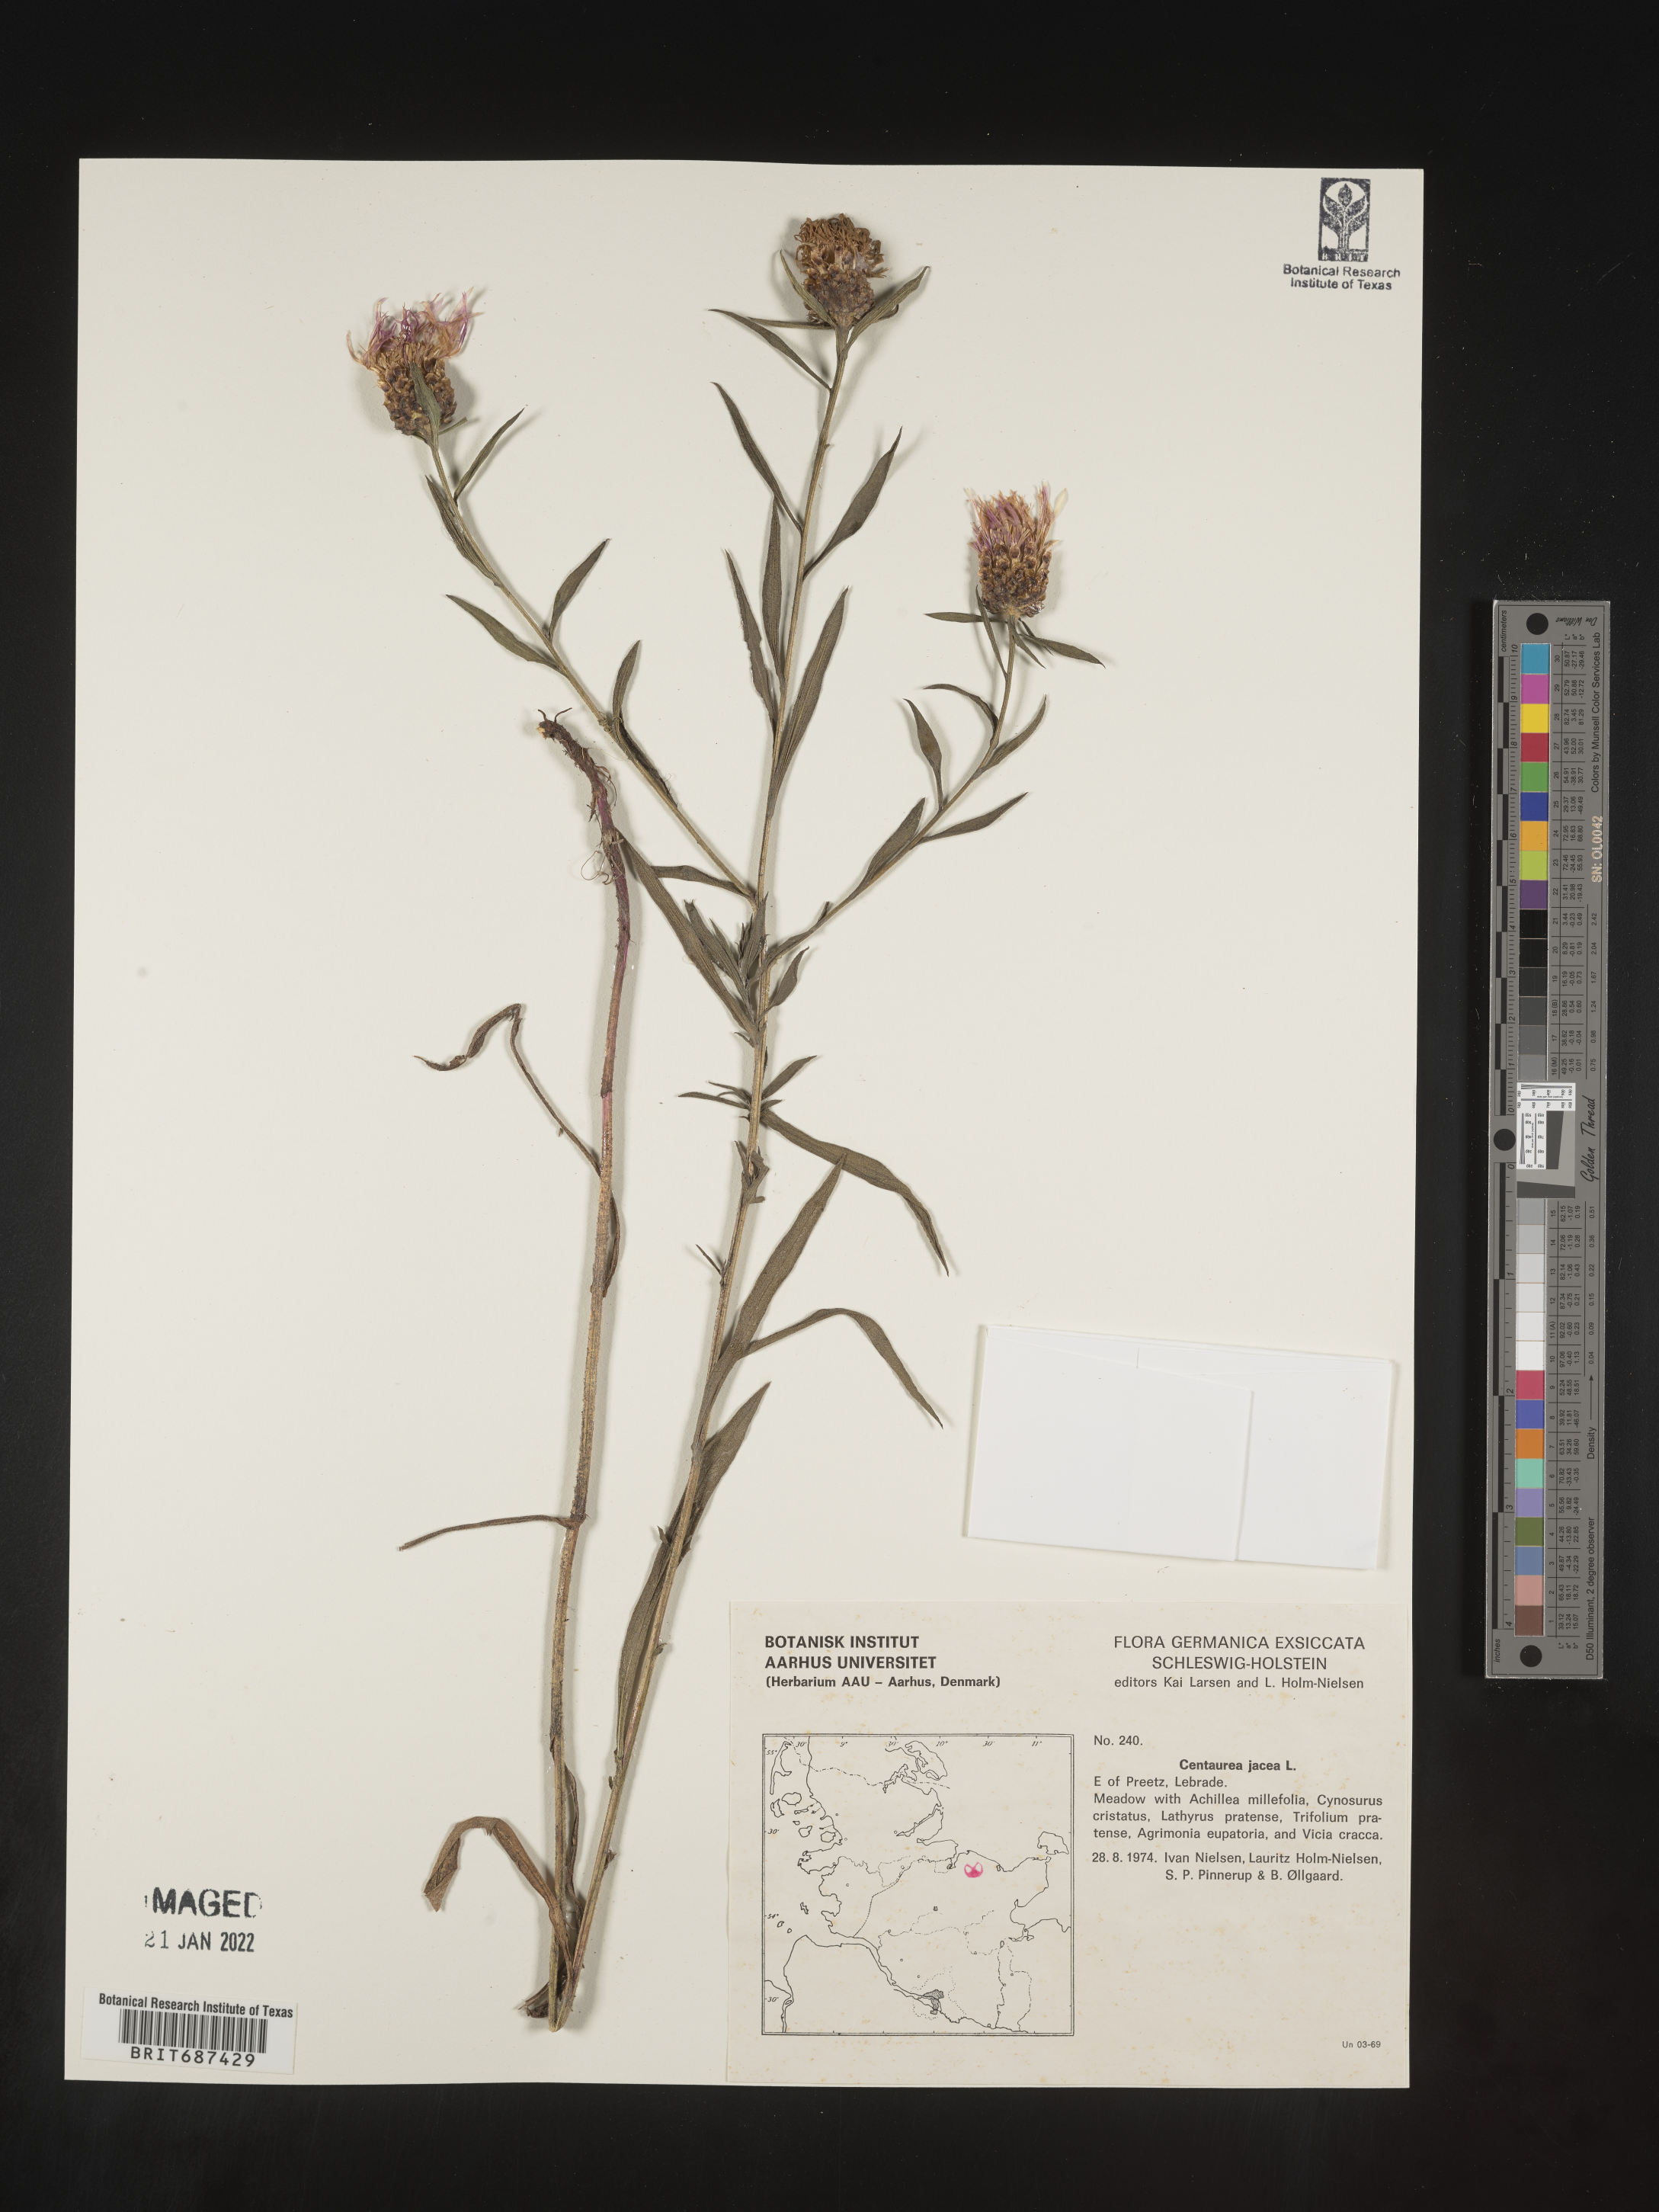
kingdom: Plantae
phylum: Tracheophyta
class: Magnoliopsida
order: Asterales
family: Asteraceae
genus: Centaurea
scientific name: Centaurea jacea
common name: Brown knapweed
